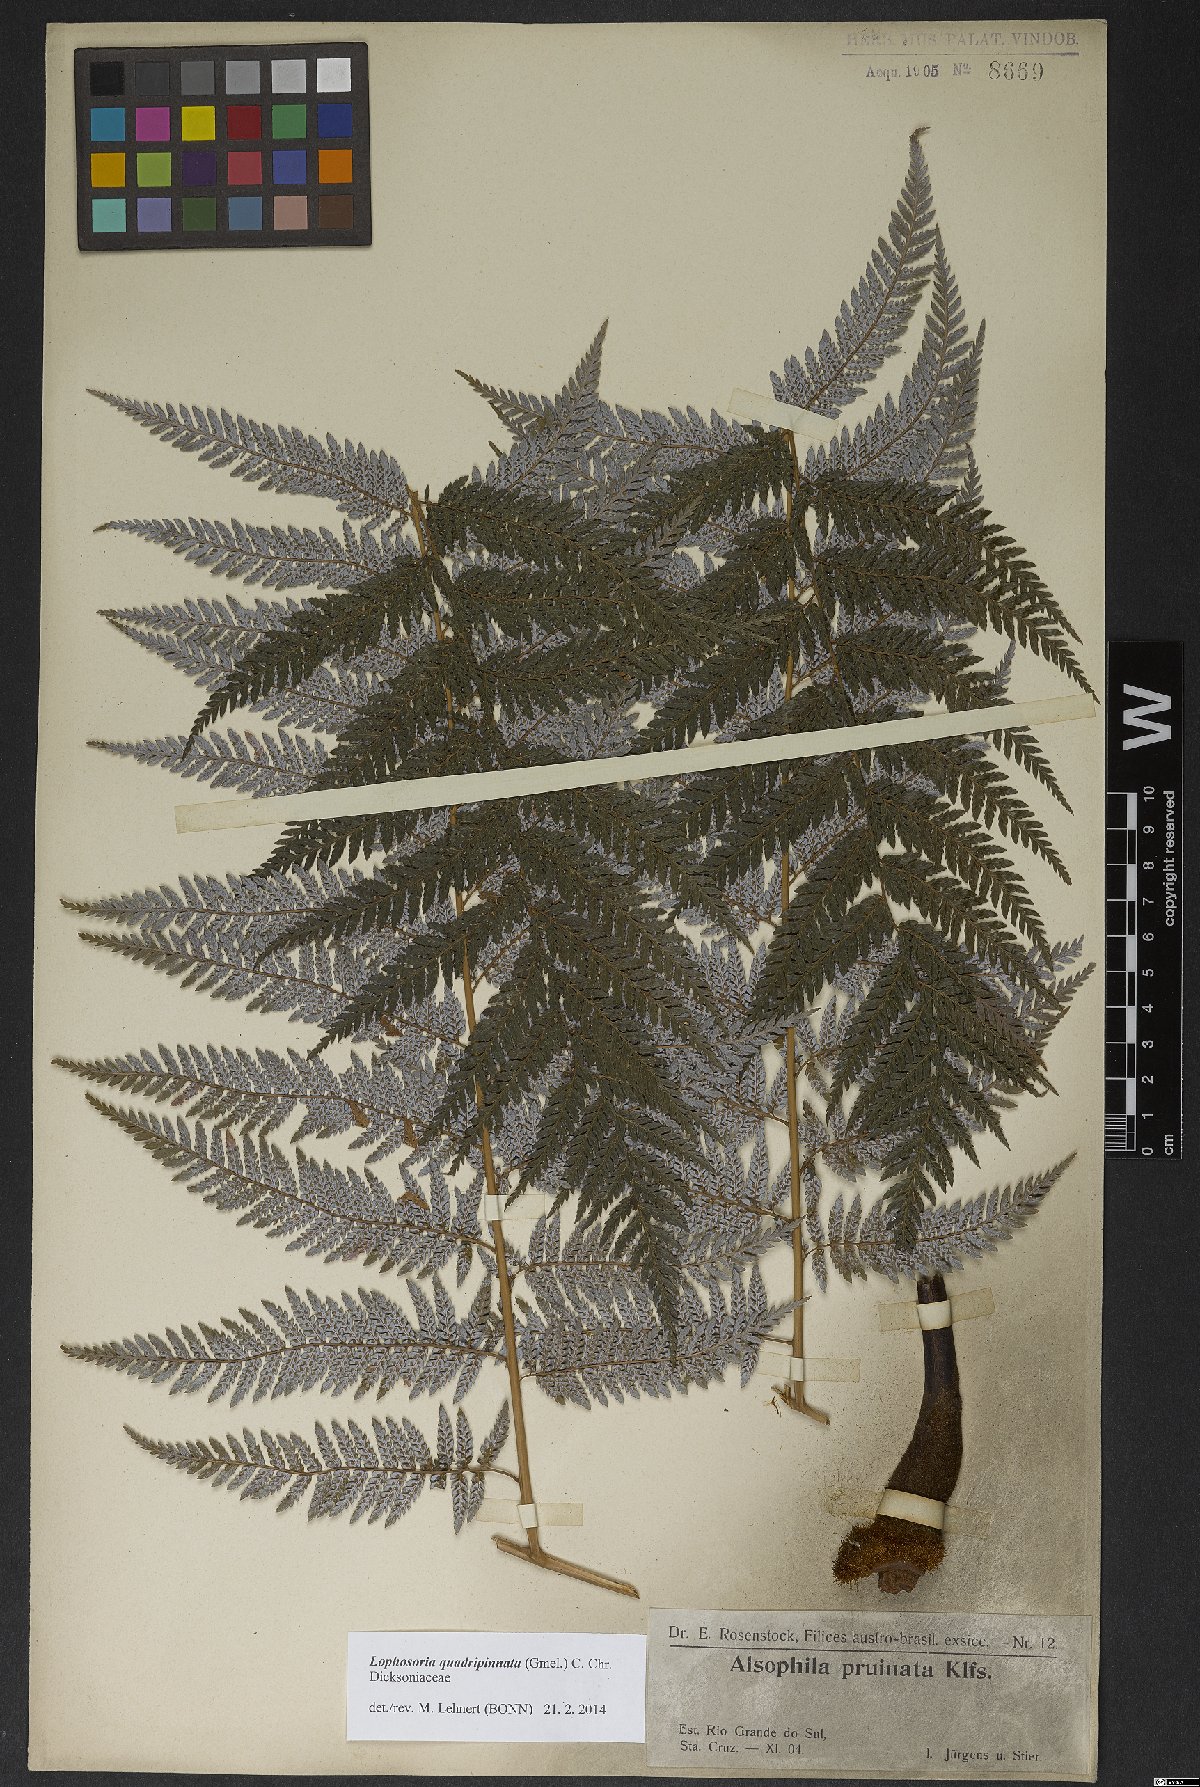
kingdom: Plantae
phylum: Tracheophyta
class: Polypodiopsida
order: Cyatheales
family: Dicksoniaceae
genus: Lophosoria
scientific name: Lophosoria quadripinnata
